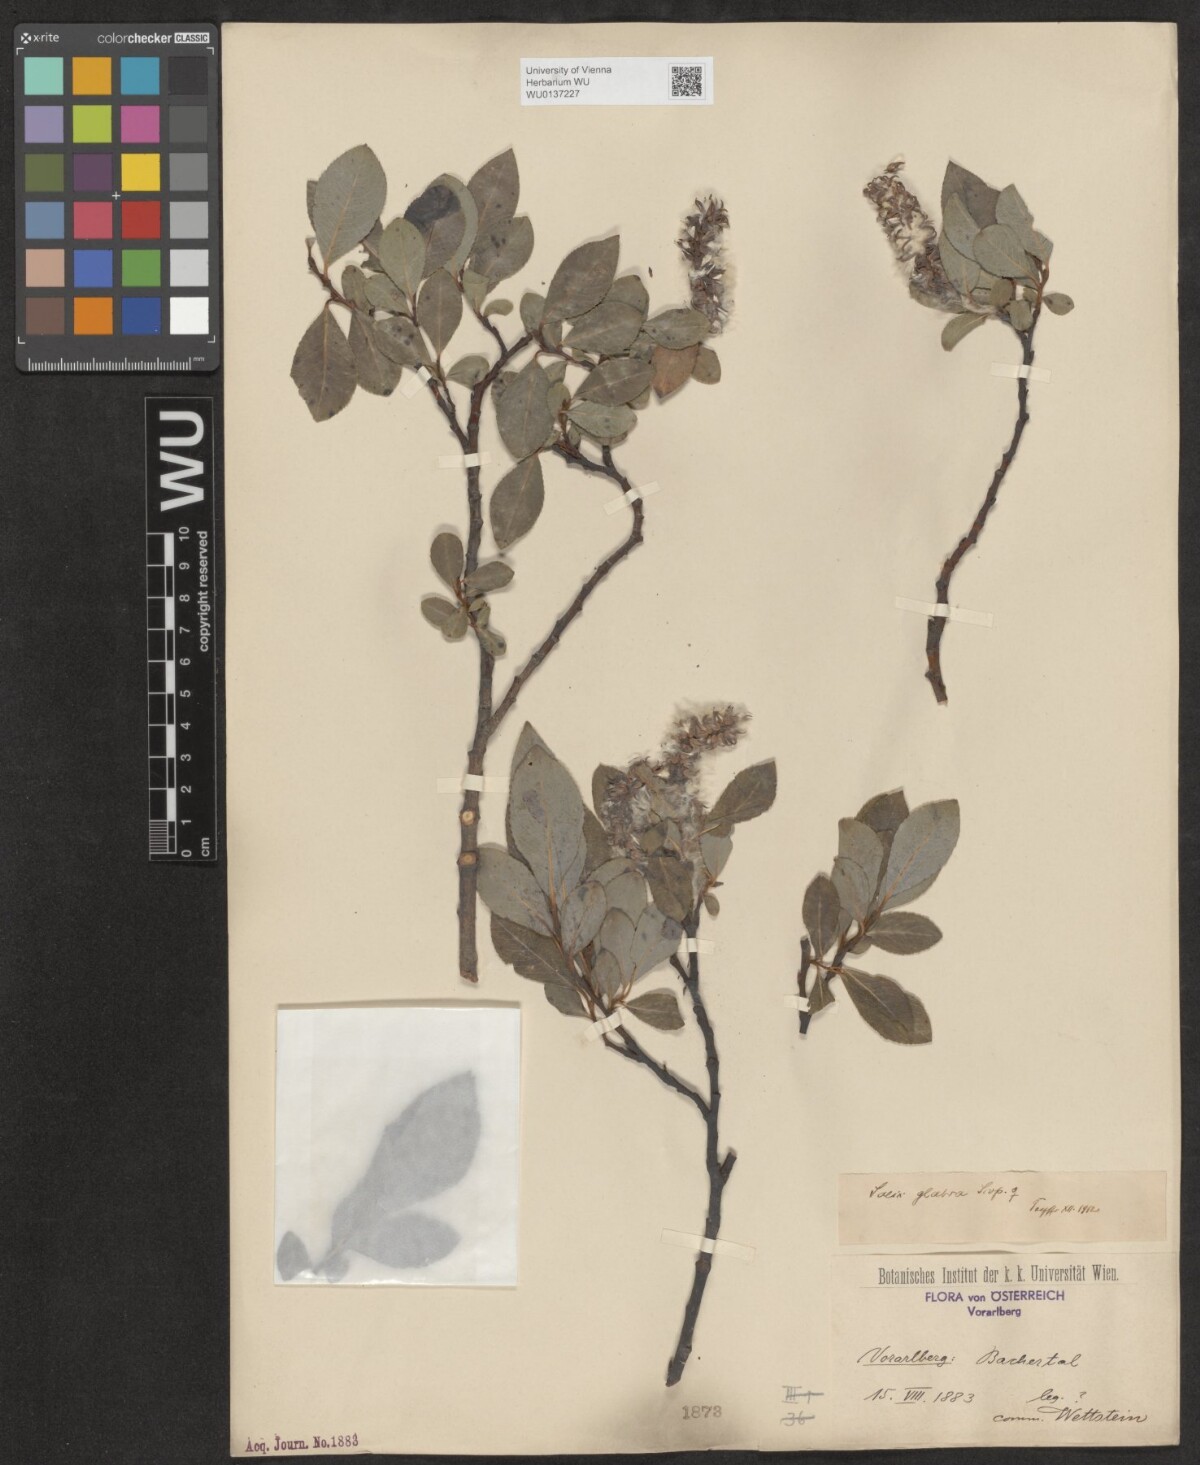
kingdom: Plantae
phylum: Tracheophyta
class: Magnoliopsida
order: Malpighiales
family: Salicaceae
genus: Salix
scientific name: Salix glabra
